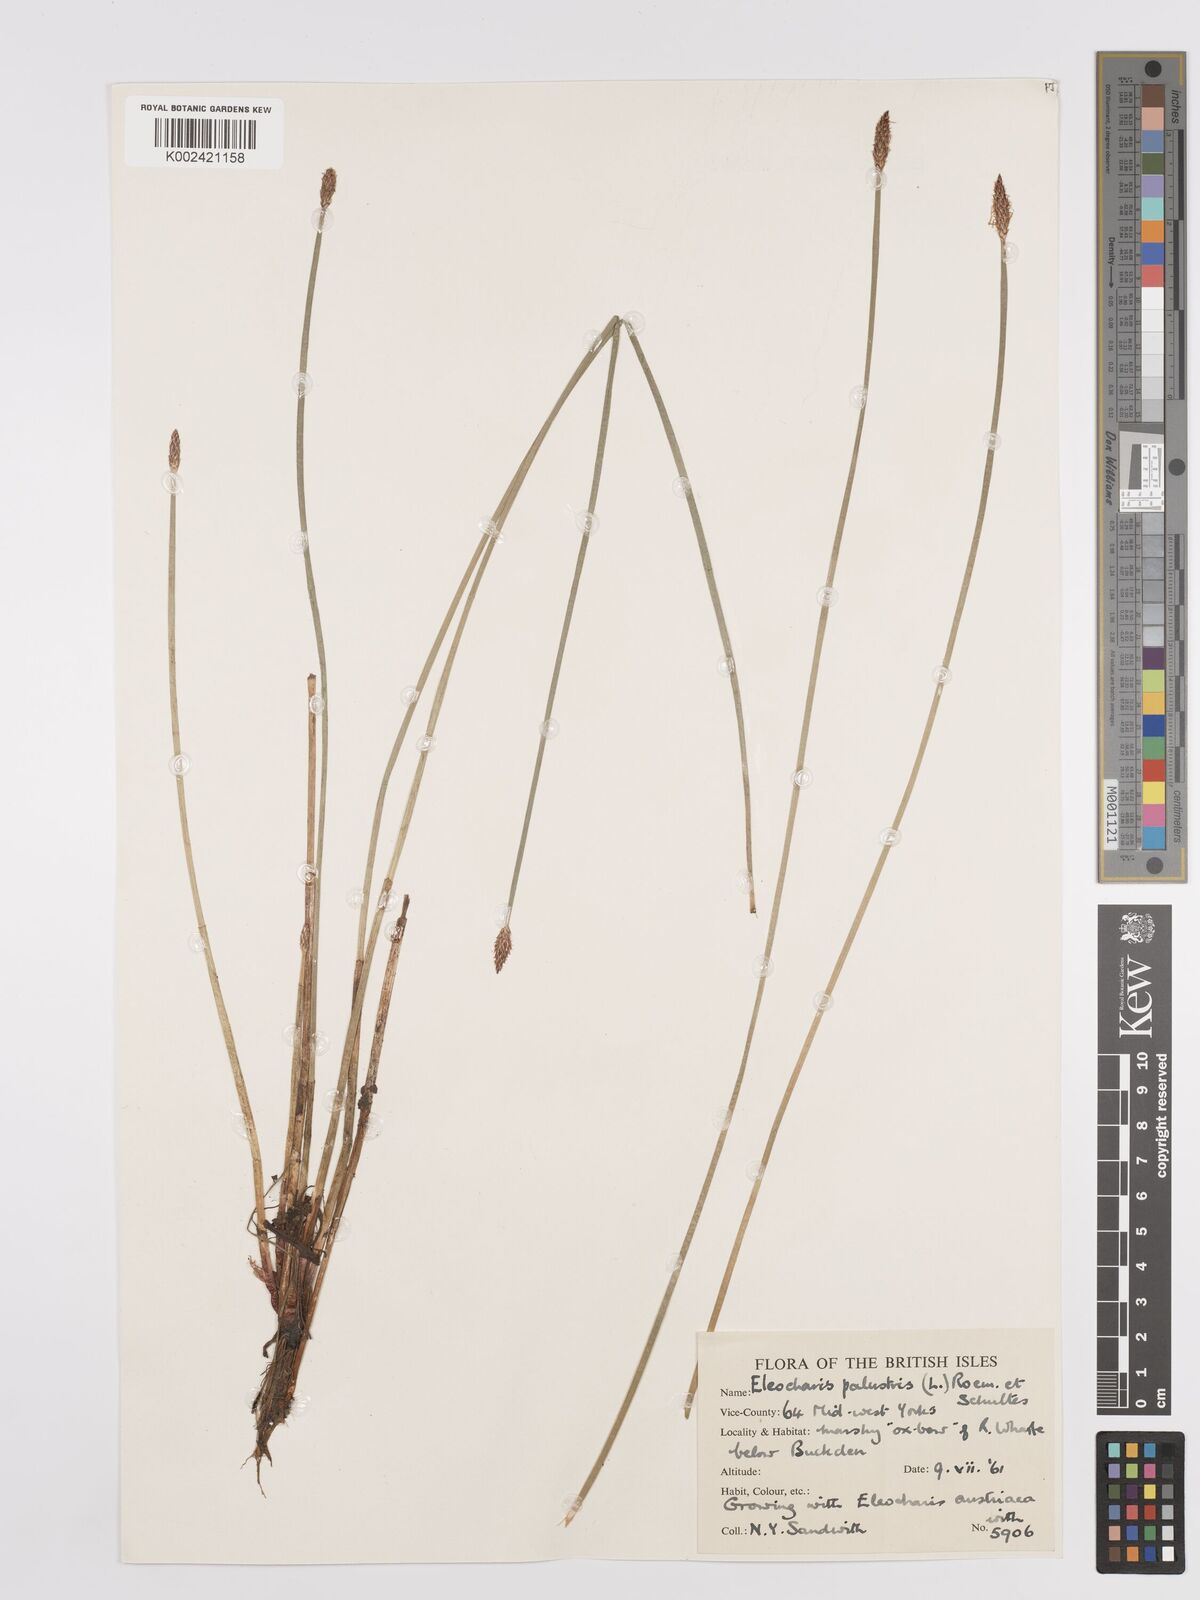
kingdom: Plantae
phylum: Tracheophyta
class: Liliopsida
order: Poales
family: Cyperaceae
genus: Eleocharis
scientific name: Eleocharis palustris
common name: Common spike-rush
